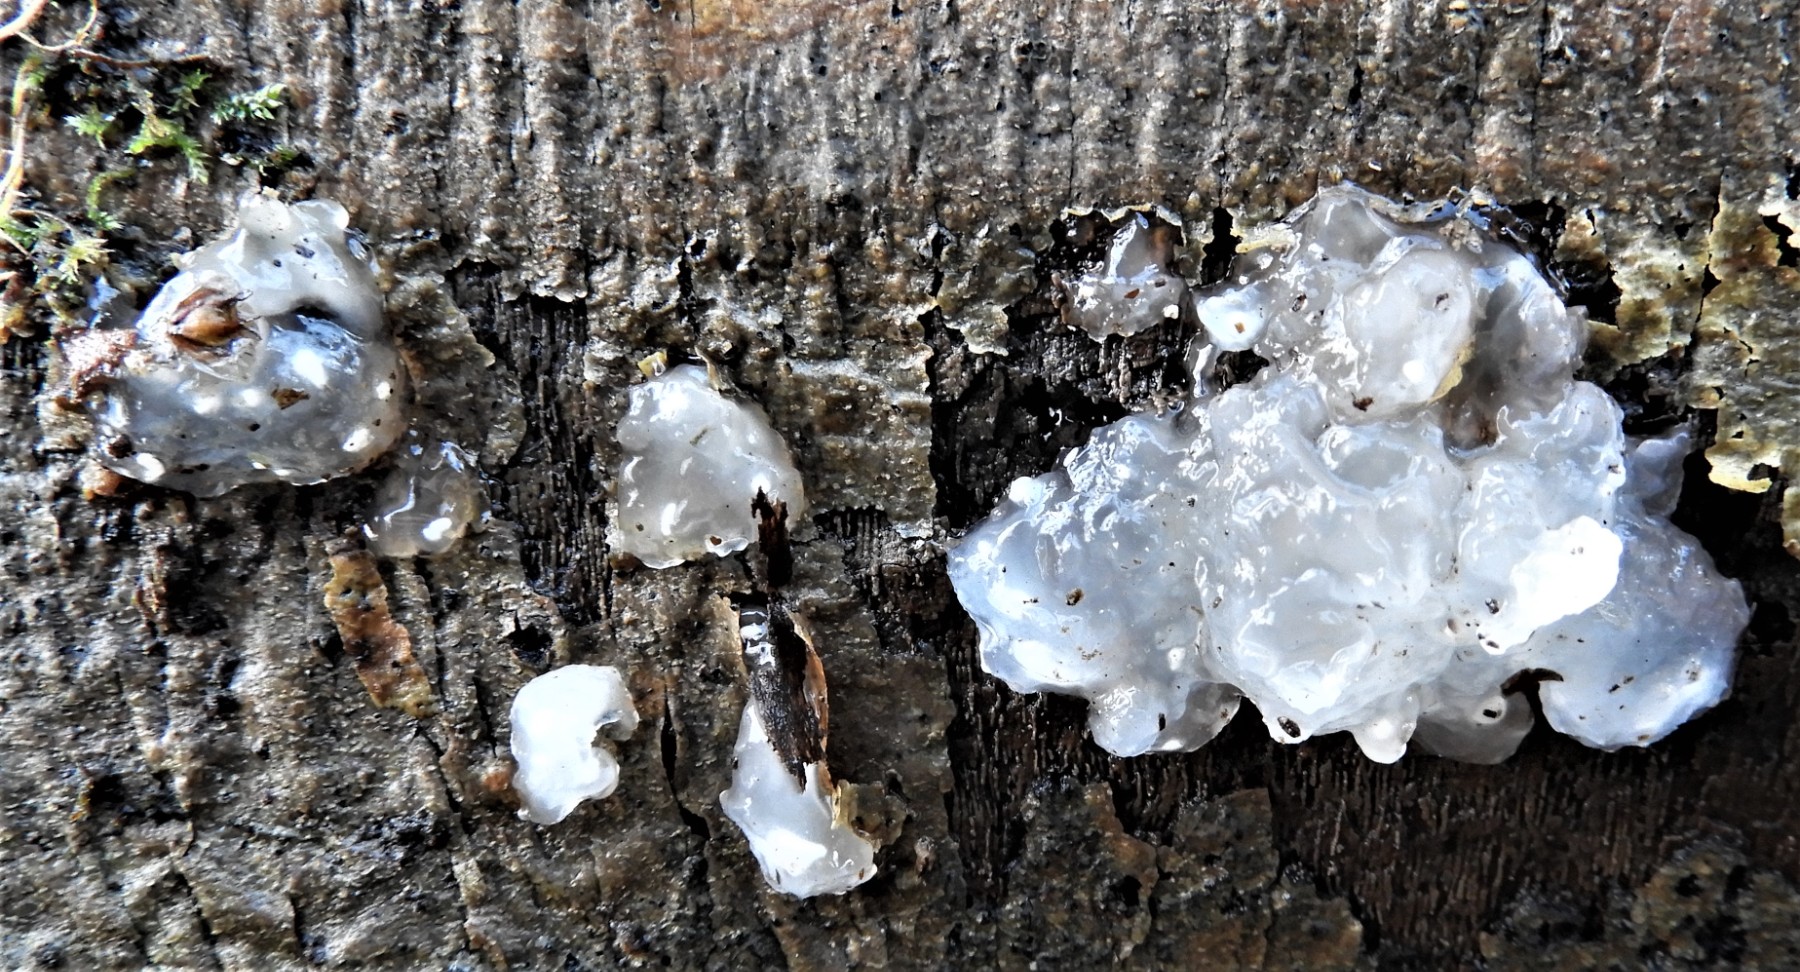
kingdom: Fungi
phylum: Basidiomycota
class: Agaricomycetes
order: Auriculariales
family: Hyaloriaceae
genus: Myxarium
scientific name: Myxarium nucleatum
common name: klar bævretop
